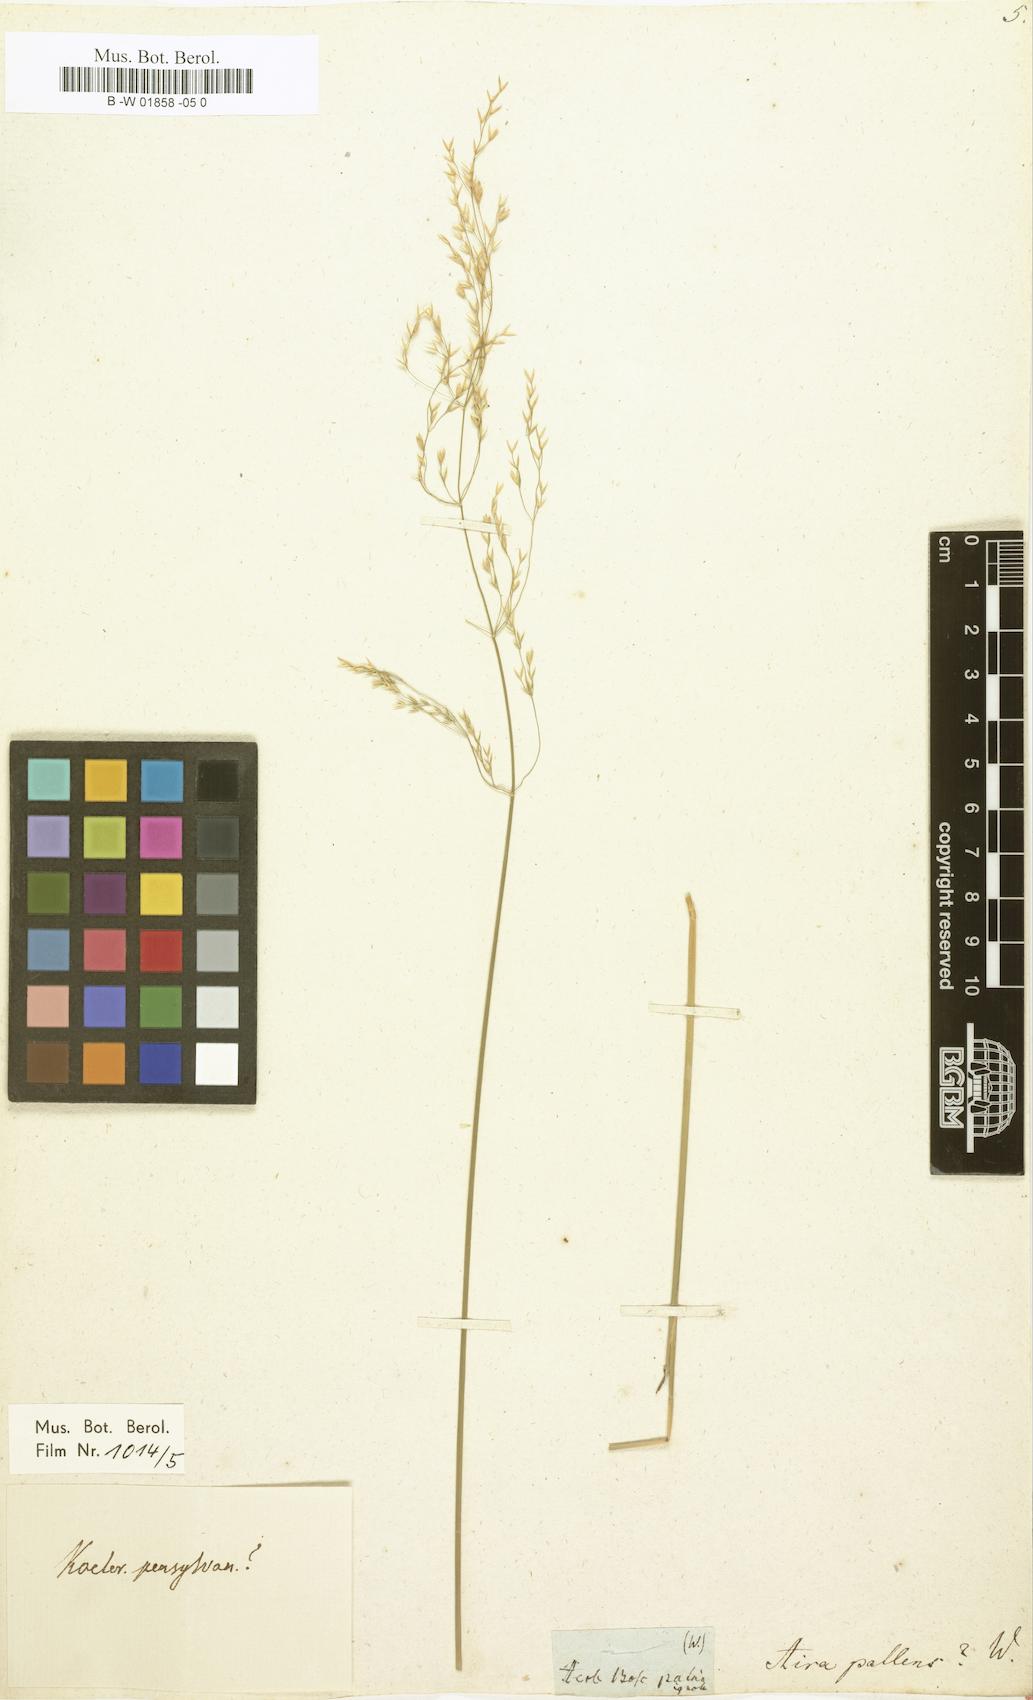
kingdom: Plantae
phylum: Tracheophyta
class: Liliopsida
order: Poales
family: Poaceae
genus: Aira
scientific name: Aira pallens
